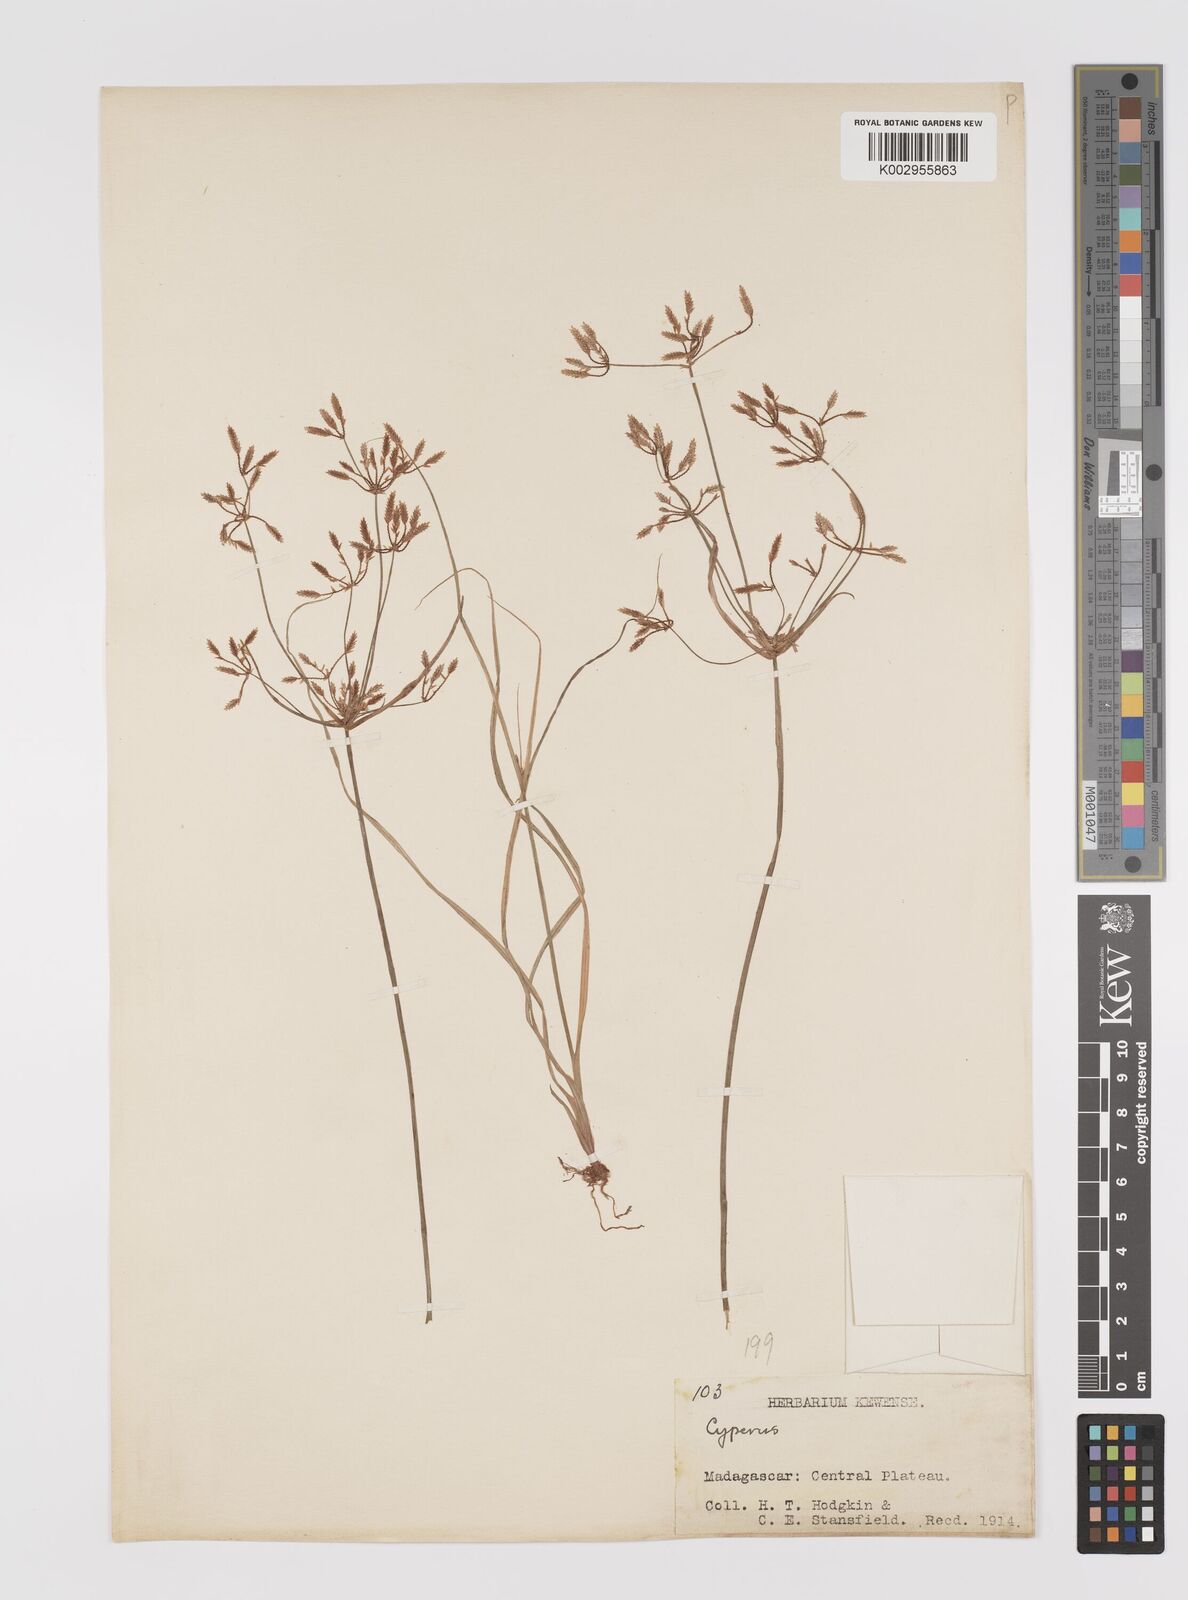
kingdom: Plantae
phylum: Tracheophyta
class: Liliopsida
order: Poales
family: Cyperaceae
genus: Cyperus
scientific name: Cyperus
